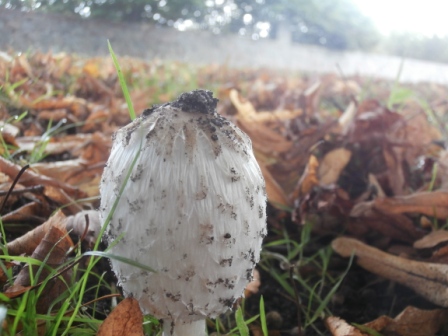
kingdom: Fungi
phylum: Basidiomycota
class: Agaricomycetes
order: Agaricales
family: Agaricaceae
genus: Coprinus
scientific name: Coprinus comatus
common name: stor parykhat
